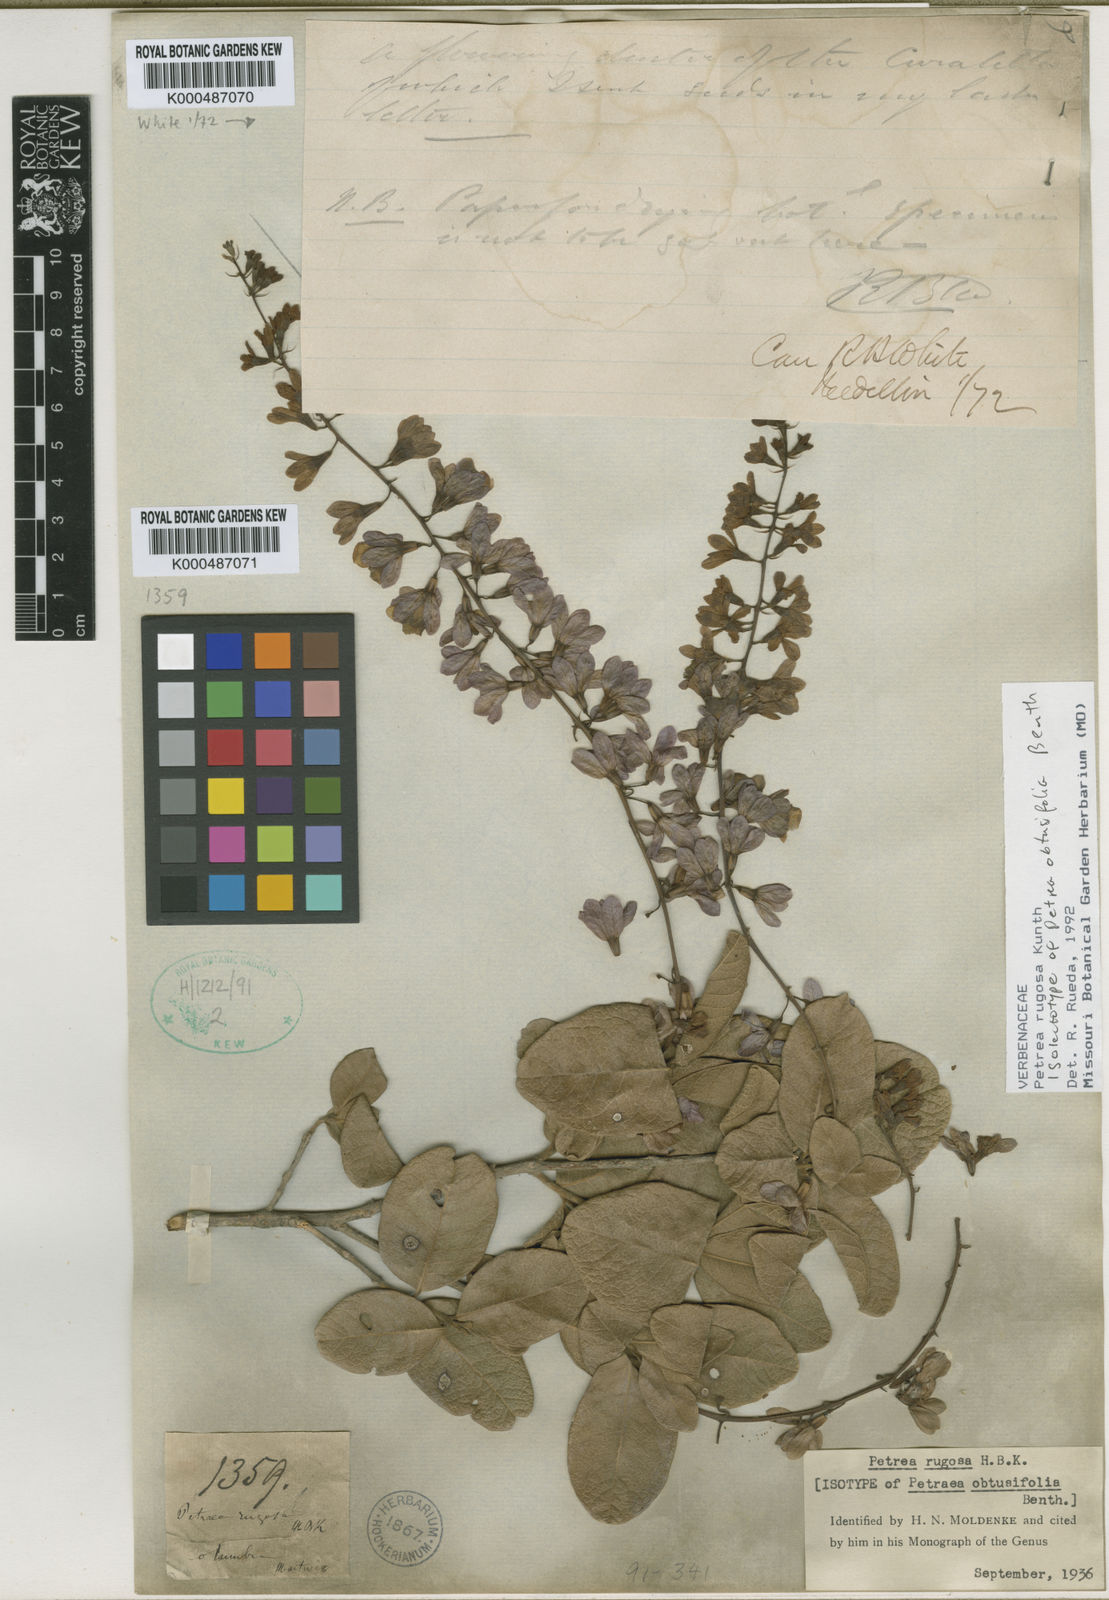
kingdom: Plantae
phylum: Tracheophyta
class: Magnoliopsida
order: Lamiales
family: Verbenaceae
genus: Petrea
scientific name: Petrea rugosa
